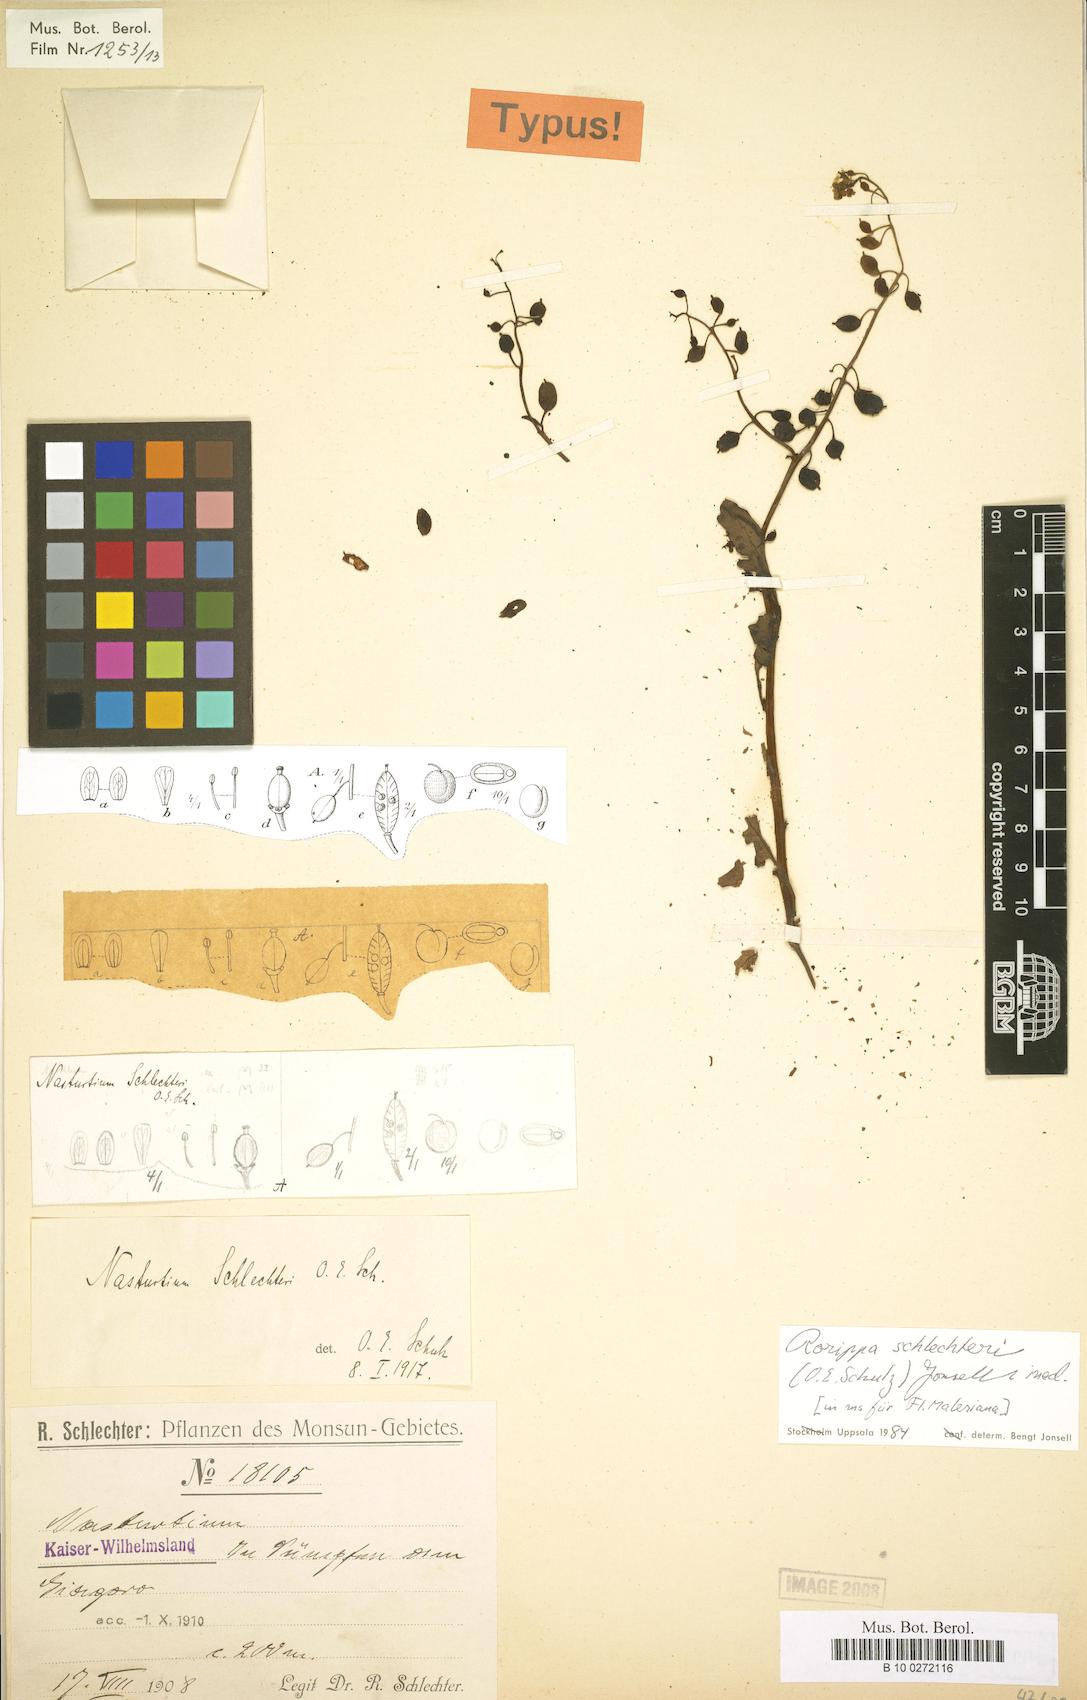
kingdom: Plantae
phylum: Tracheophyta
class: Magnoliopsida
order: Brassicales
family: Brassicaceae
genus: Rorippa
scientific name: Rorippa schlechteri
